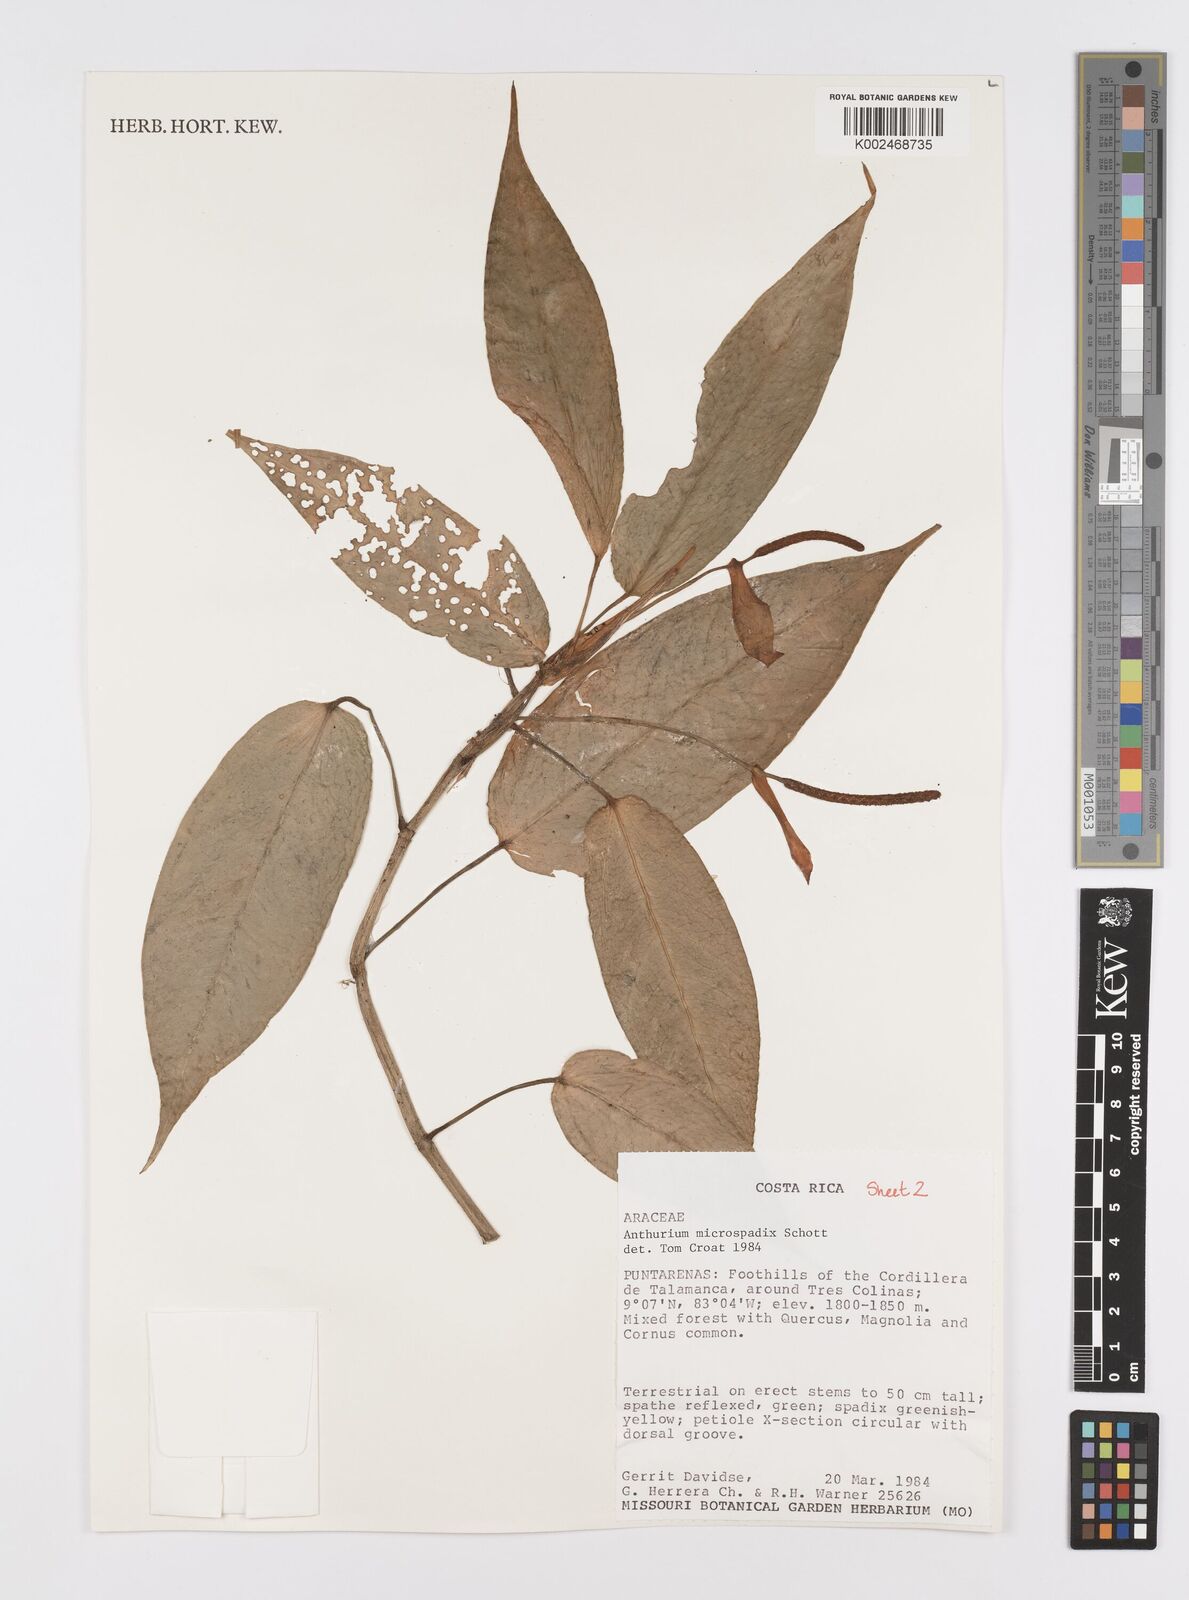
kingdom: Plantae
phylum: Tracheophyta
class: Liliopsida
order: Alismatales
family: Araceae
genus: Anthurium
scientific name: Anthurium microspadix
